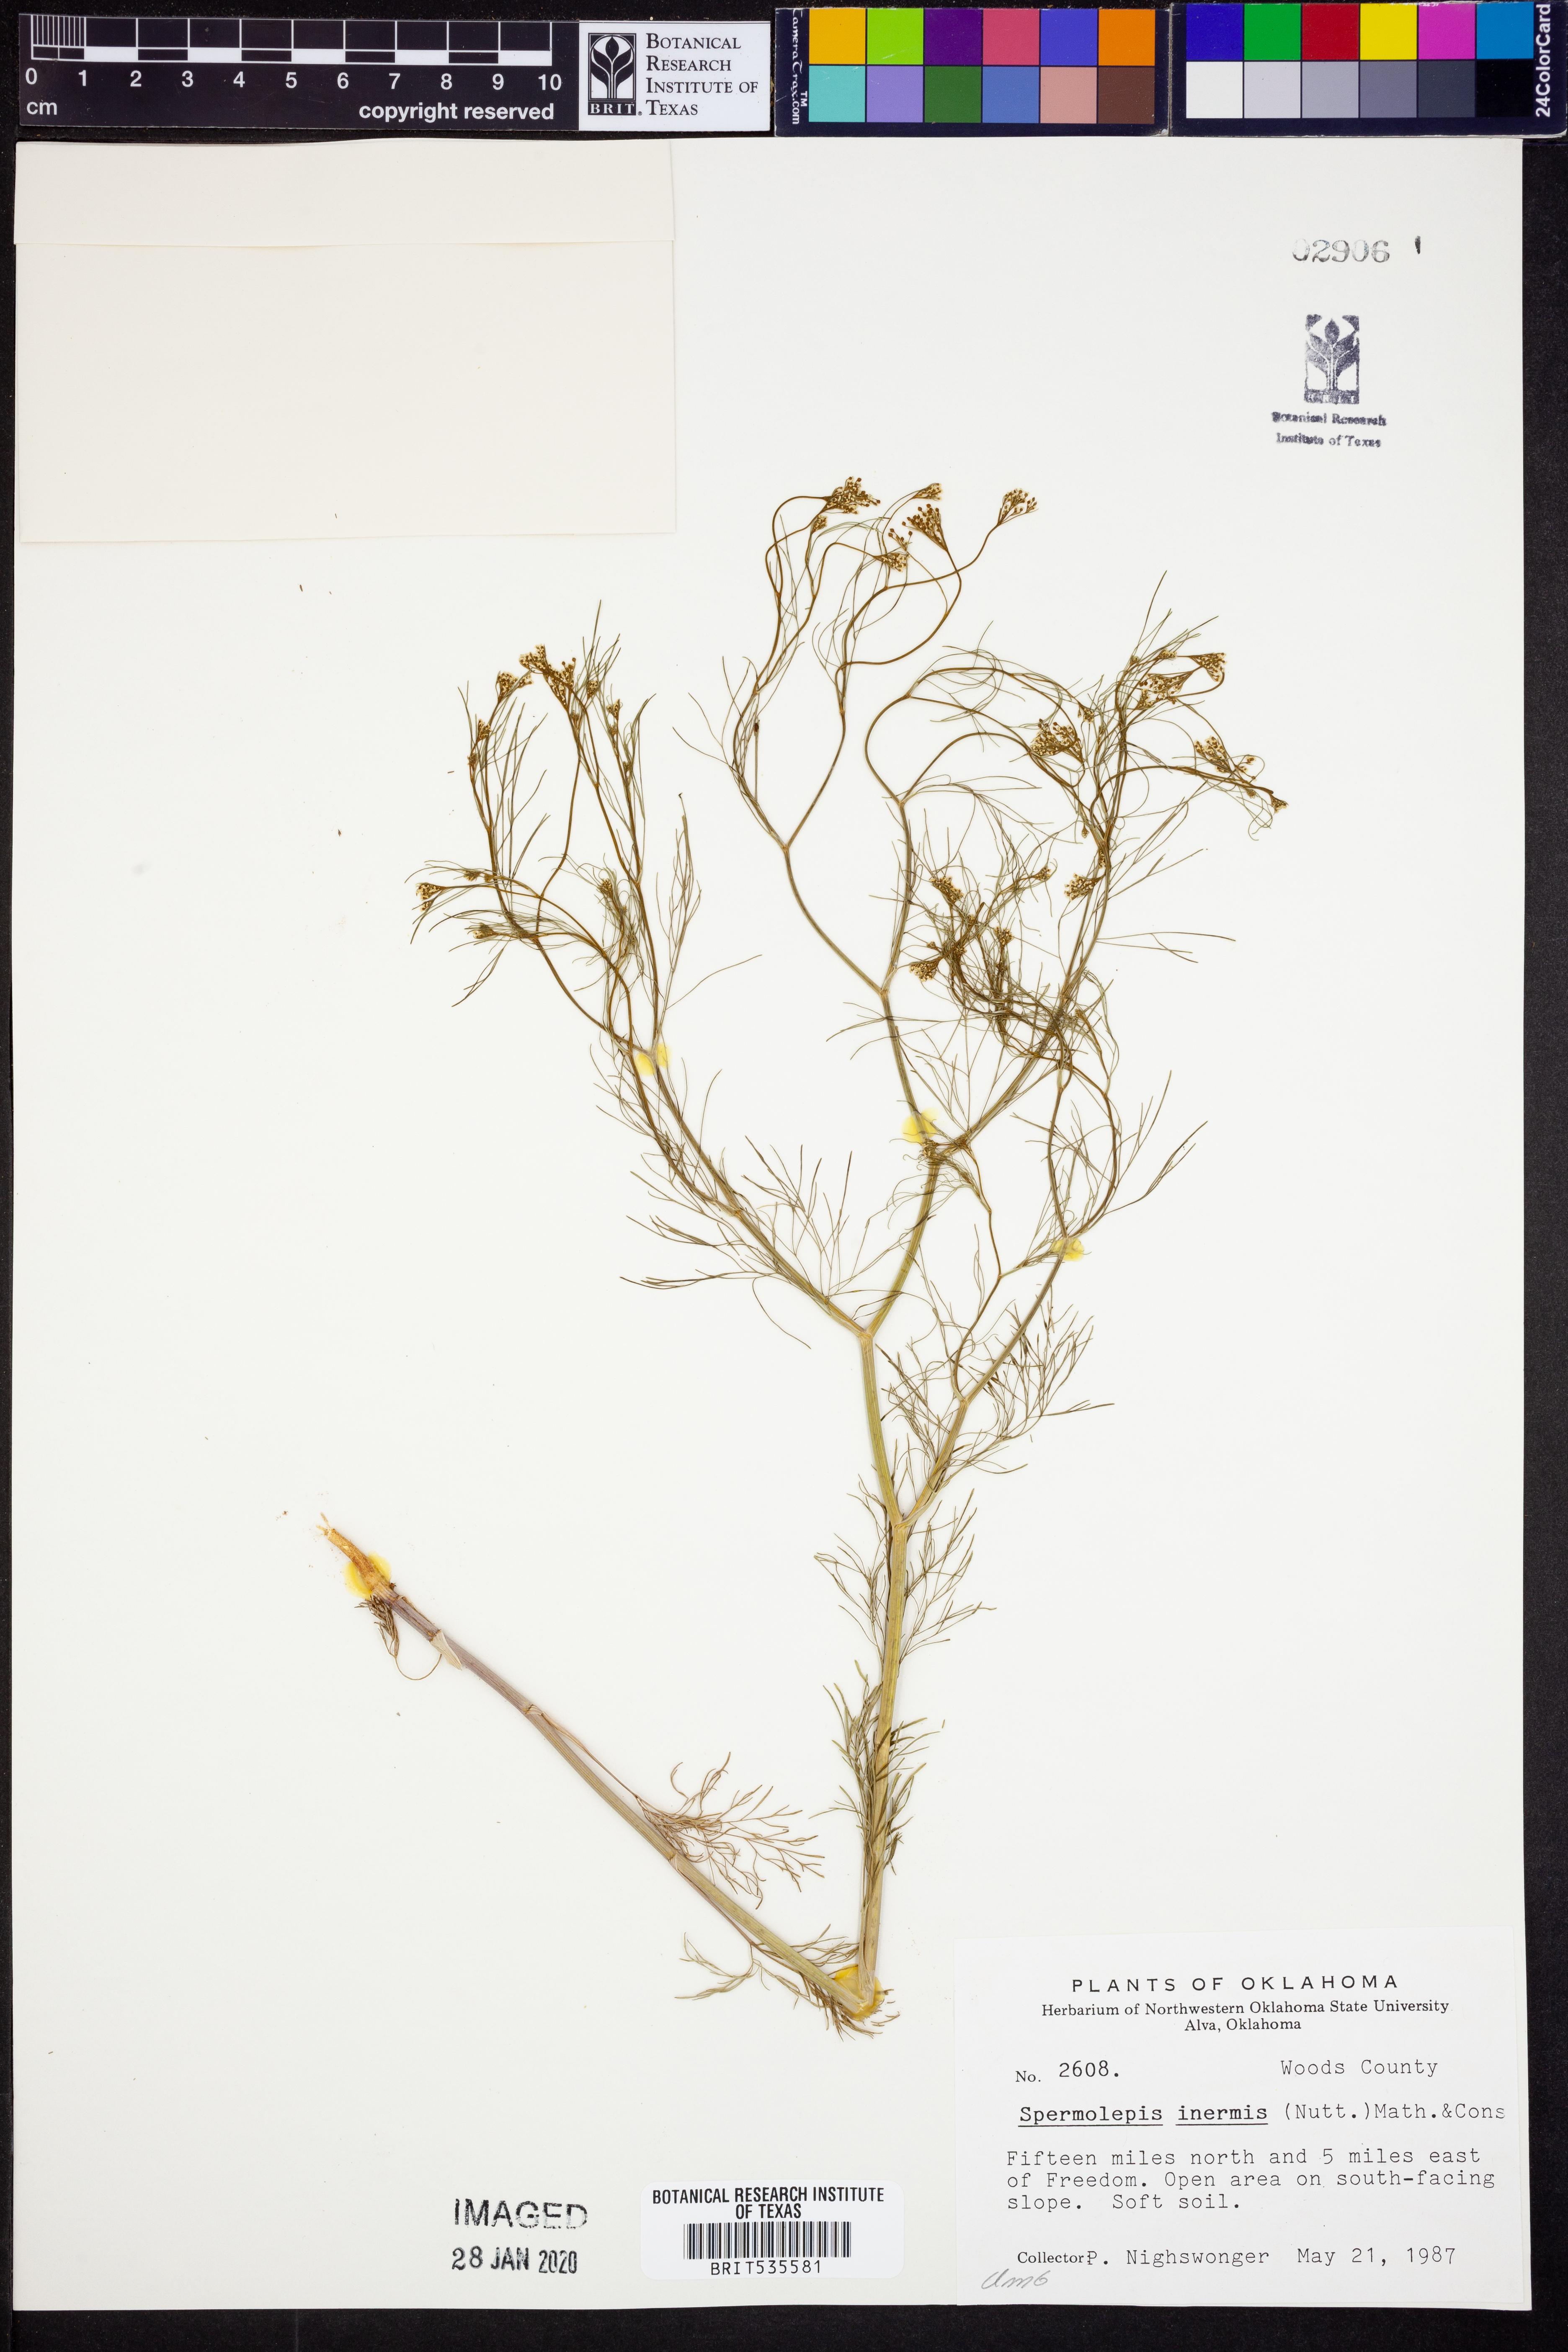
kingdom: Plantae
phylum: Tracheophyta
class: Magnoliopsida
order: Apiales
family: Apiaceae
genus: Spermolepis
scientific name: Spermolepis inermis
